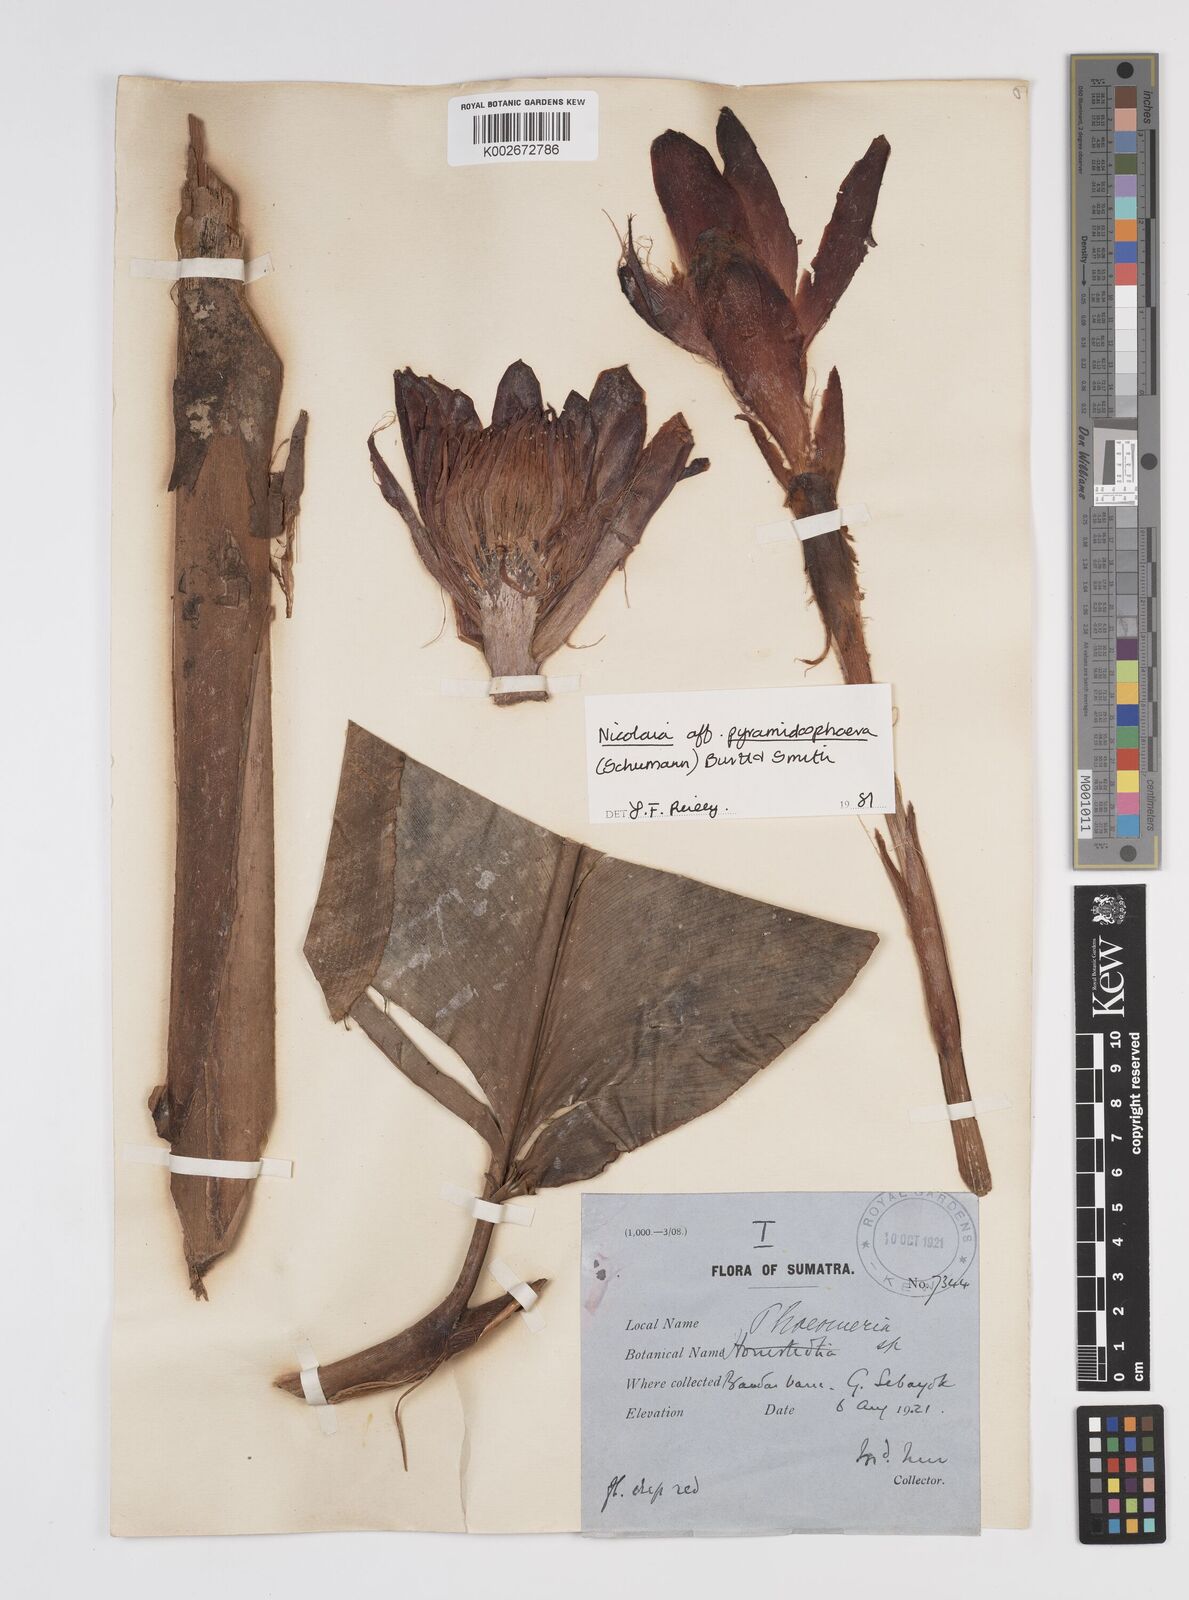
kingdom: Plantae
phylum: Tracheophyta
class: Liliopsida
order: Zingiberales
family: Zingiberaceae
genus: Etlingera
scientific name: Etlingera pyramidosphaera
